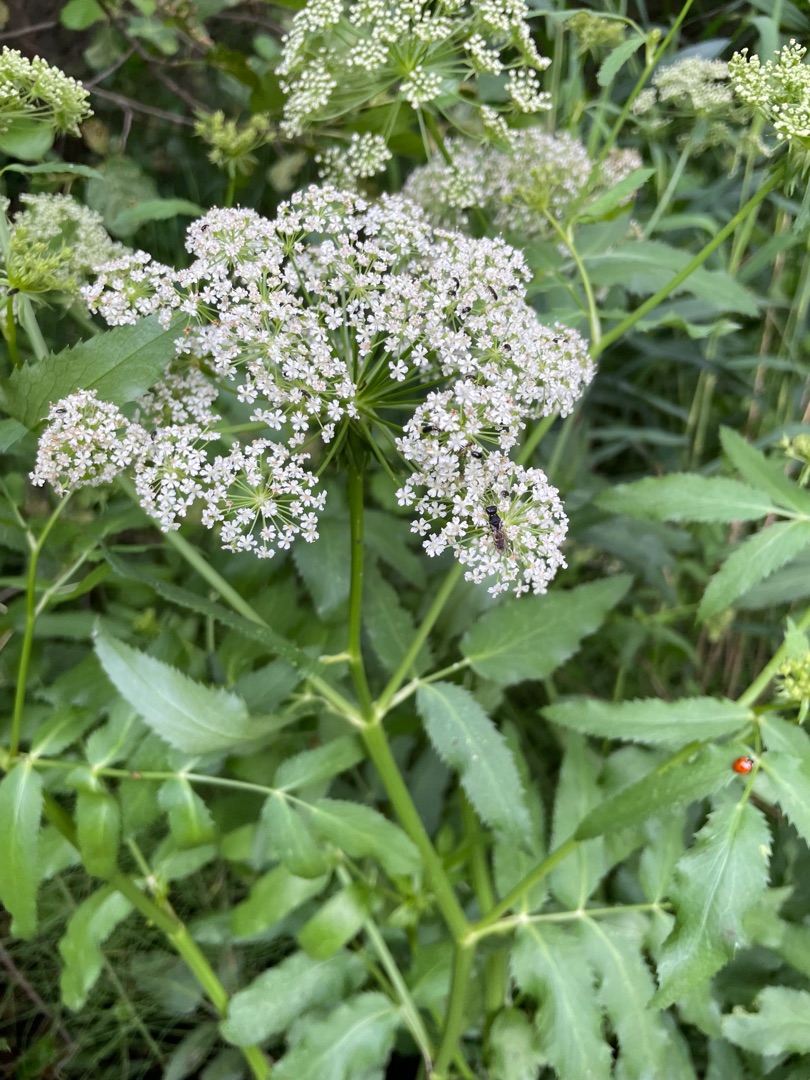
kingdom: Plantae
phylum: Tracheophyta
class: Magnoliopsida
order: Apiales
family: Apiaceae
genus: Sium
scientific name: Sium latifolium
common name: Bredbladet mærke
